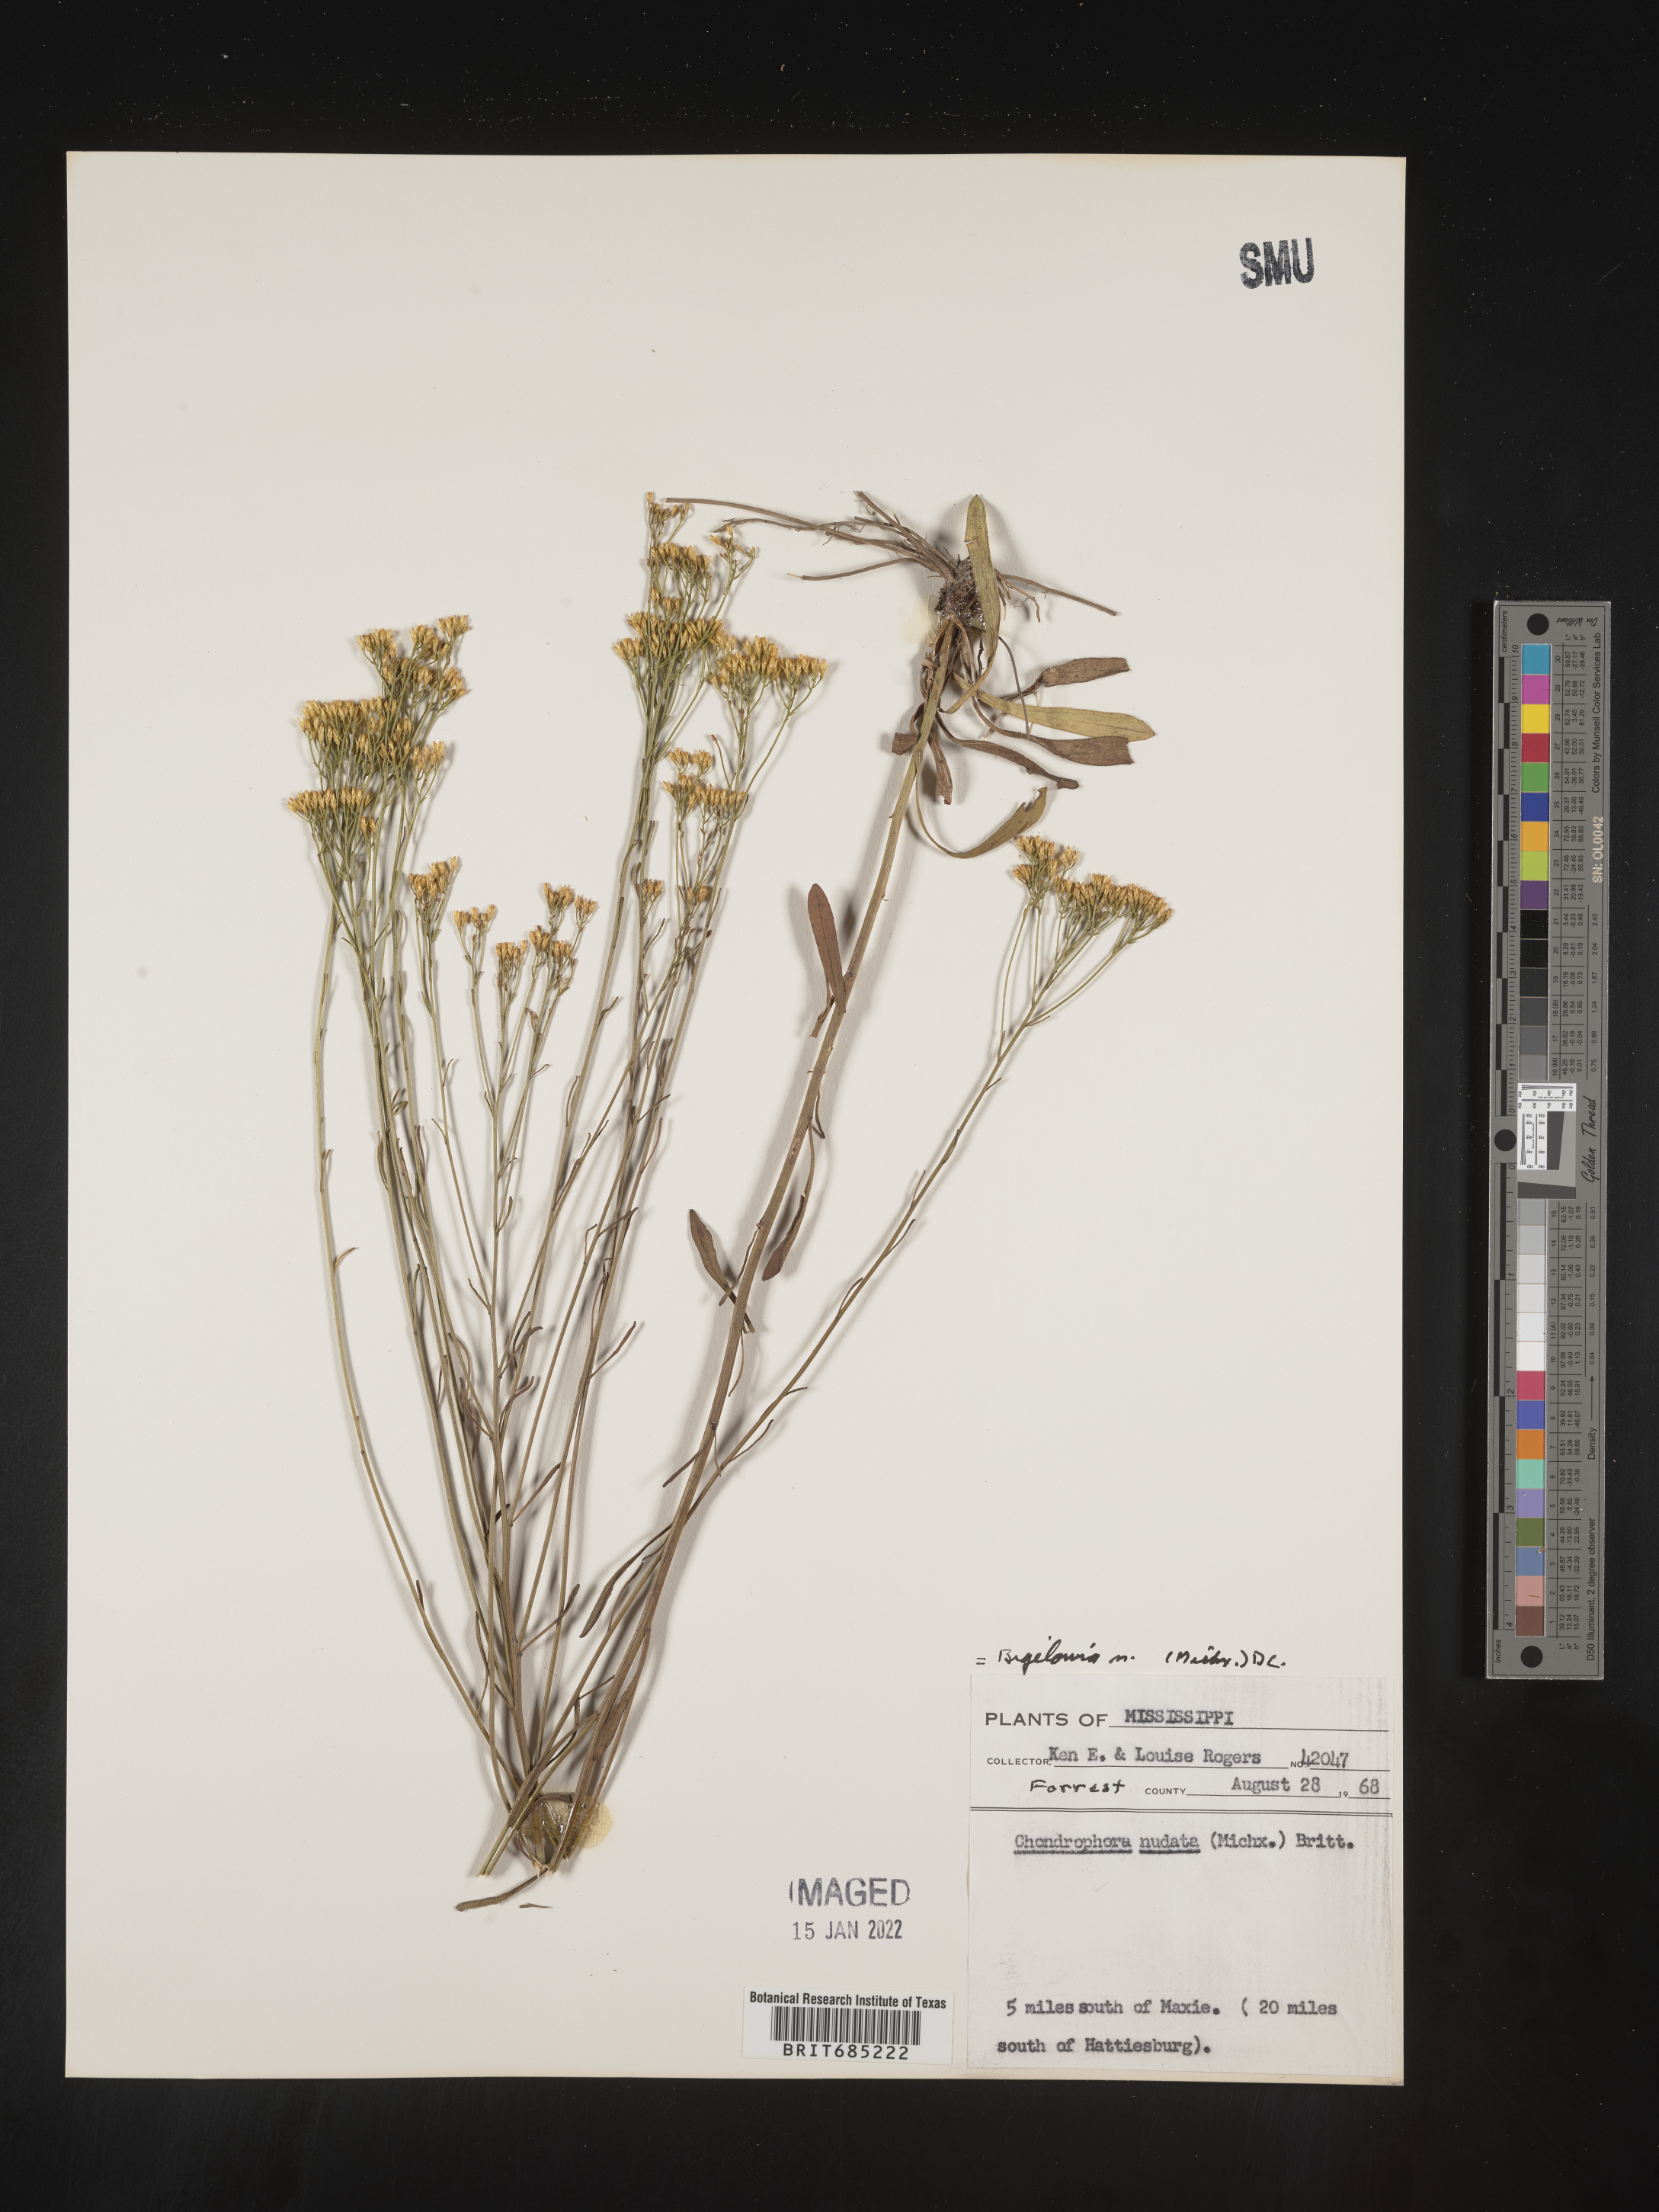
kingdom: Plantae
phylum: Tracheophyta
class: Magnoliopsida
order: Asterales
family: Asteraceae
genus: Bigelowia
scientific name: Bigelowia nudata
